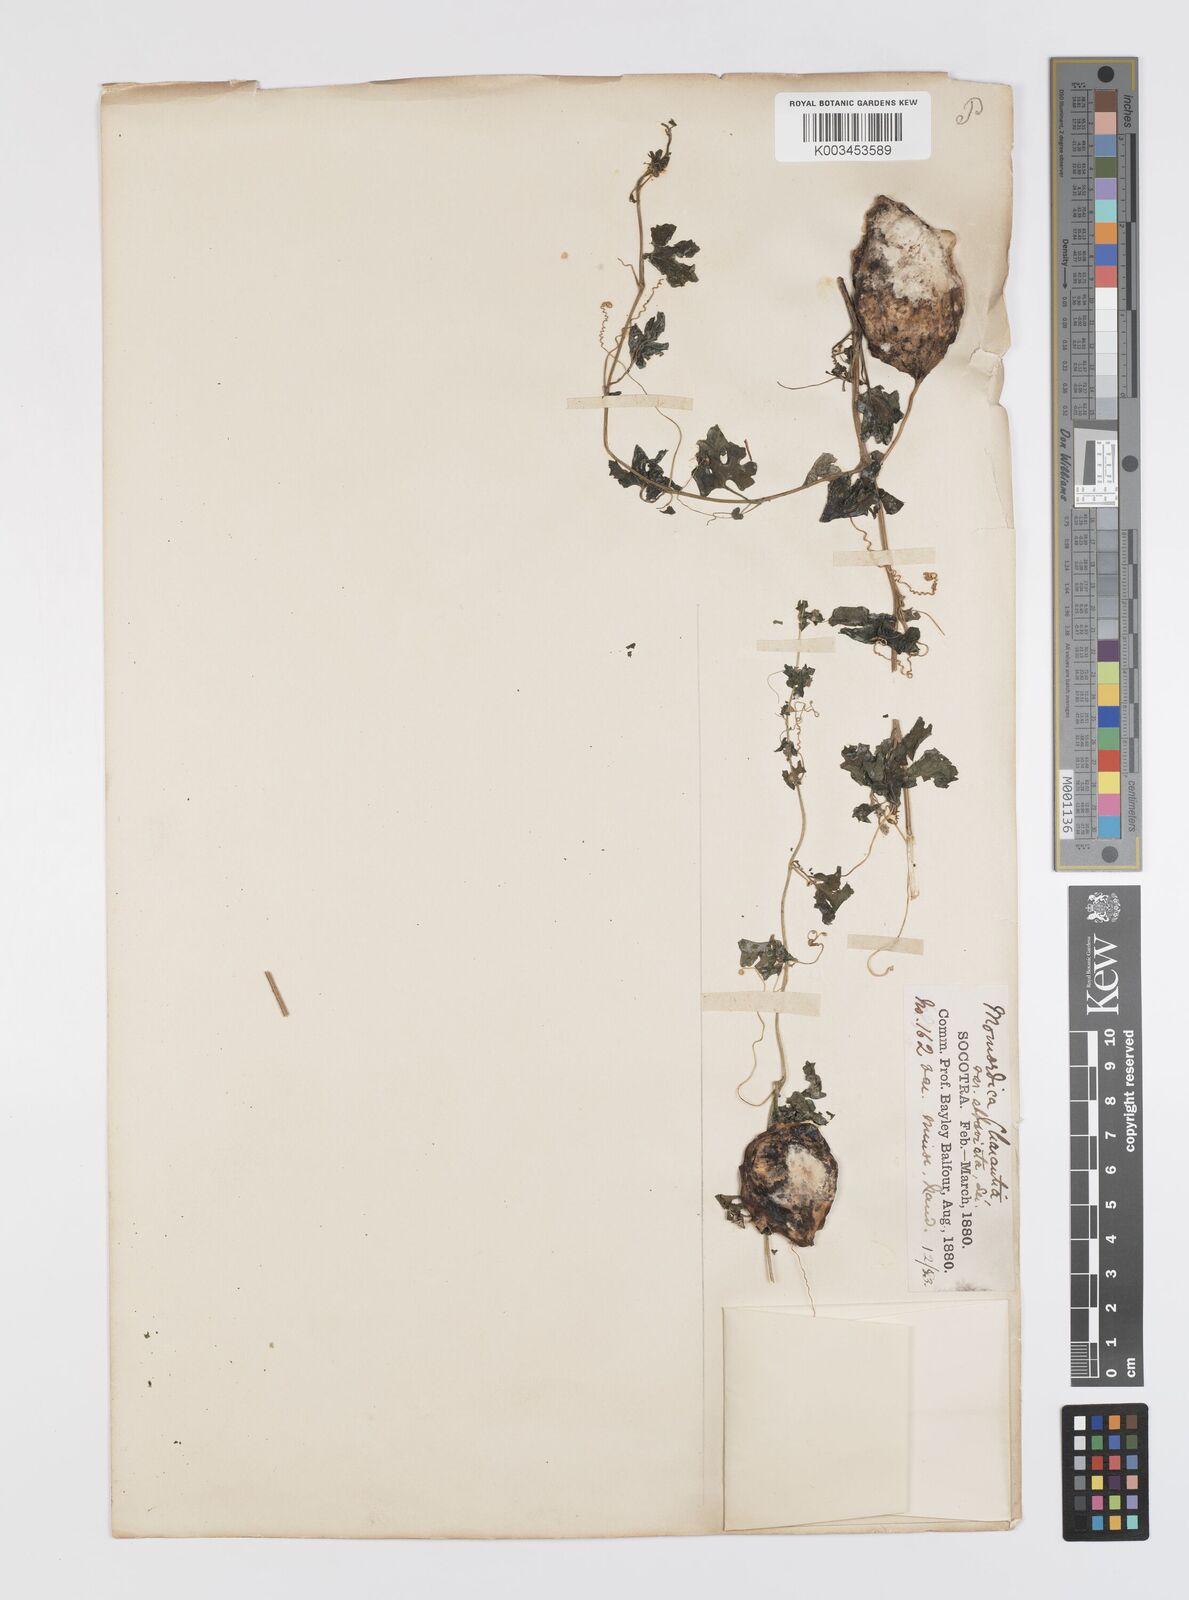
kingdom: Plantae
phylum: Tracheophyta
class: Magnoliopsida
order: Cucurbitales
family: Cucurbitaceae
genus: Momordica
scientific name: Momordica charantia
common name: Balsampear
